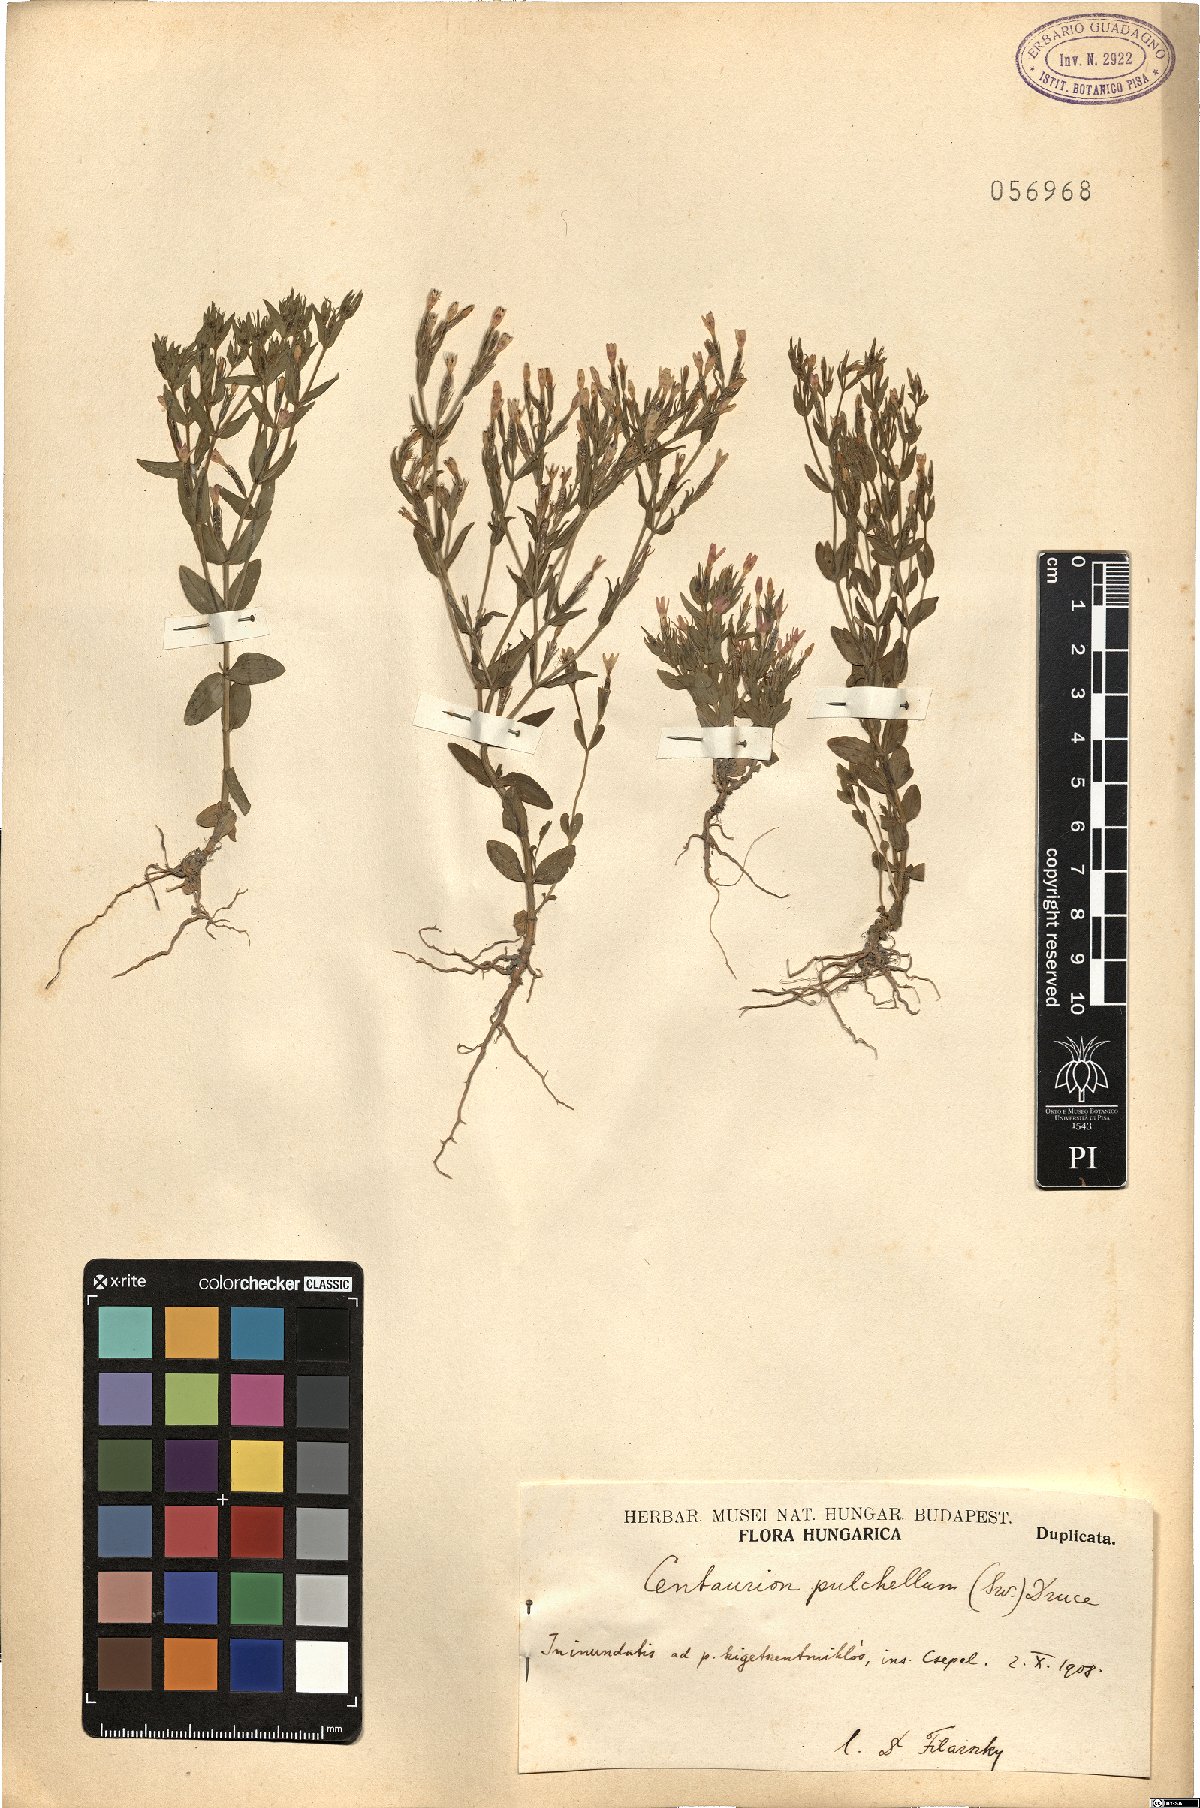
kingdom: Plantae
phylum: Tracheophyta
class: Magnoliopsida
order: Gentianales
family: Gentianaceae
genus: Centaurium
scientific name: Centaurium pulchellum
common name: Lesser centaury
